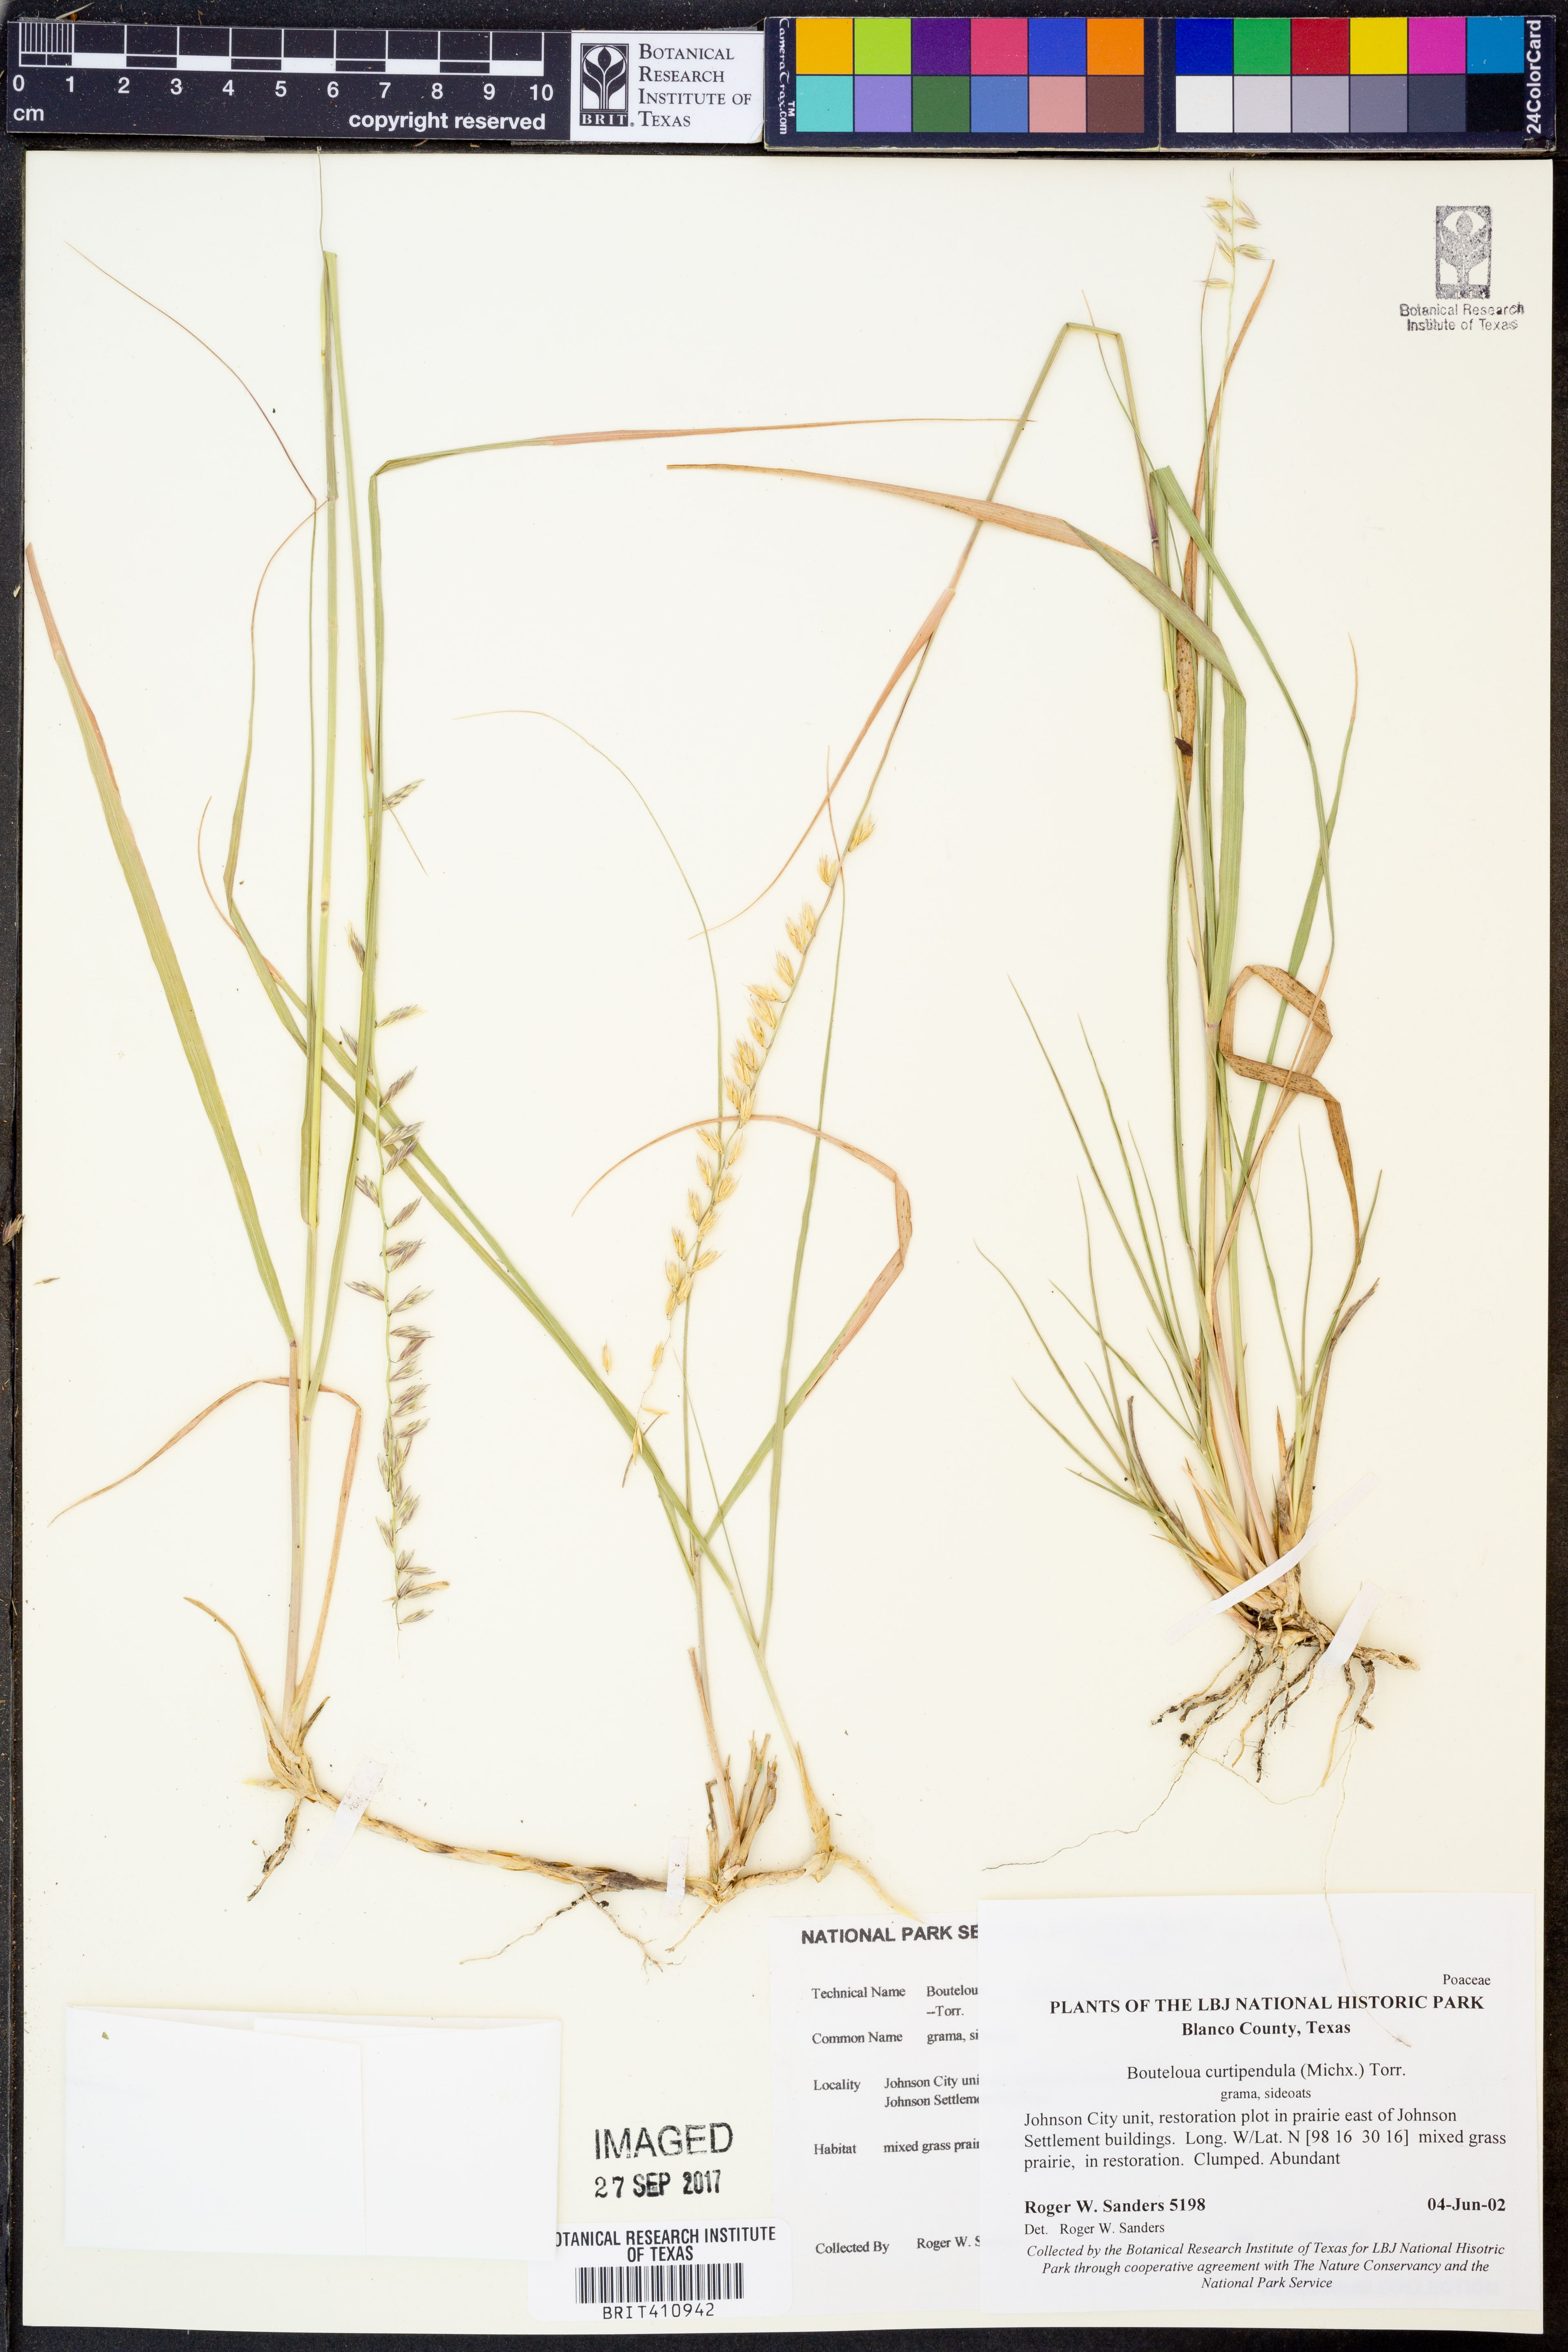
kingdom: Plantae
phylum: Tracheophyta
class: Liliopsida
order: Poales
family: Poaceae
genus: Bouteloua
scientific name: Bouteloua curtipendula
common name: Side-oats grama
